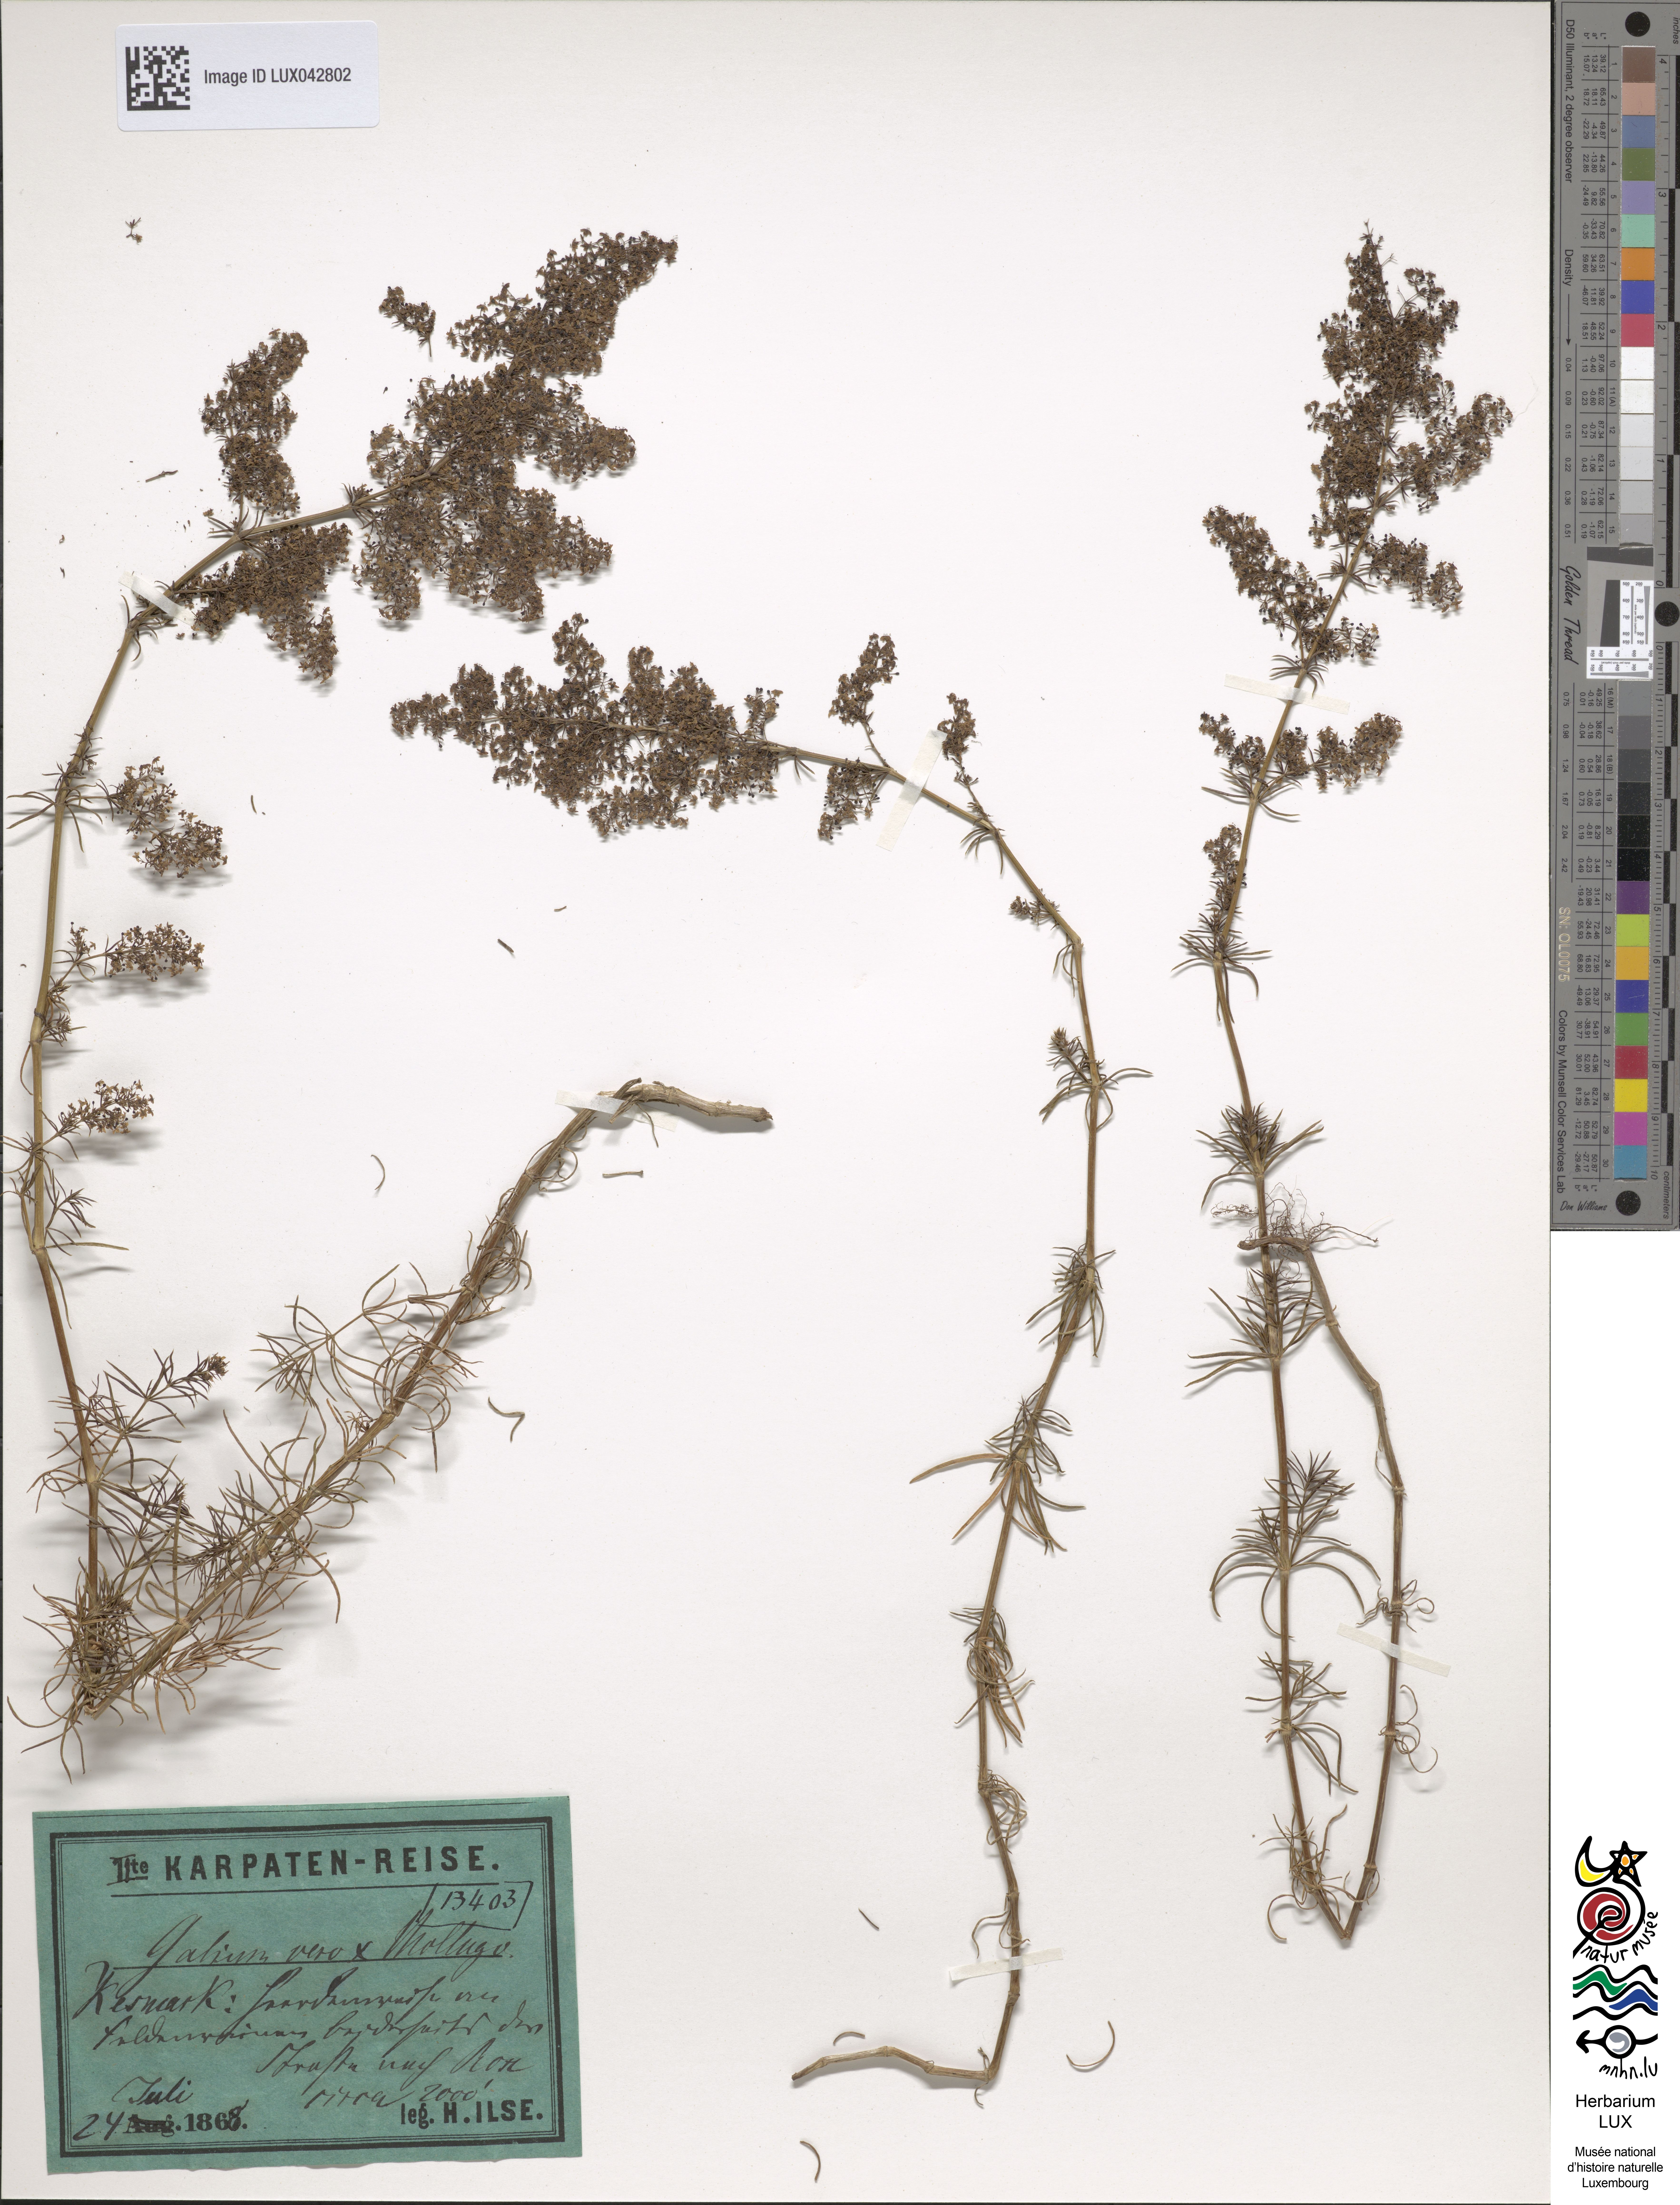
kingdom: Plantae
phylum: Tracheophyta
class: Magnoliopsida
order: Gentianales
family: Rubiaceae
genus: Galium
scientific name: Galium
